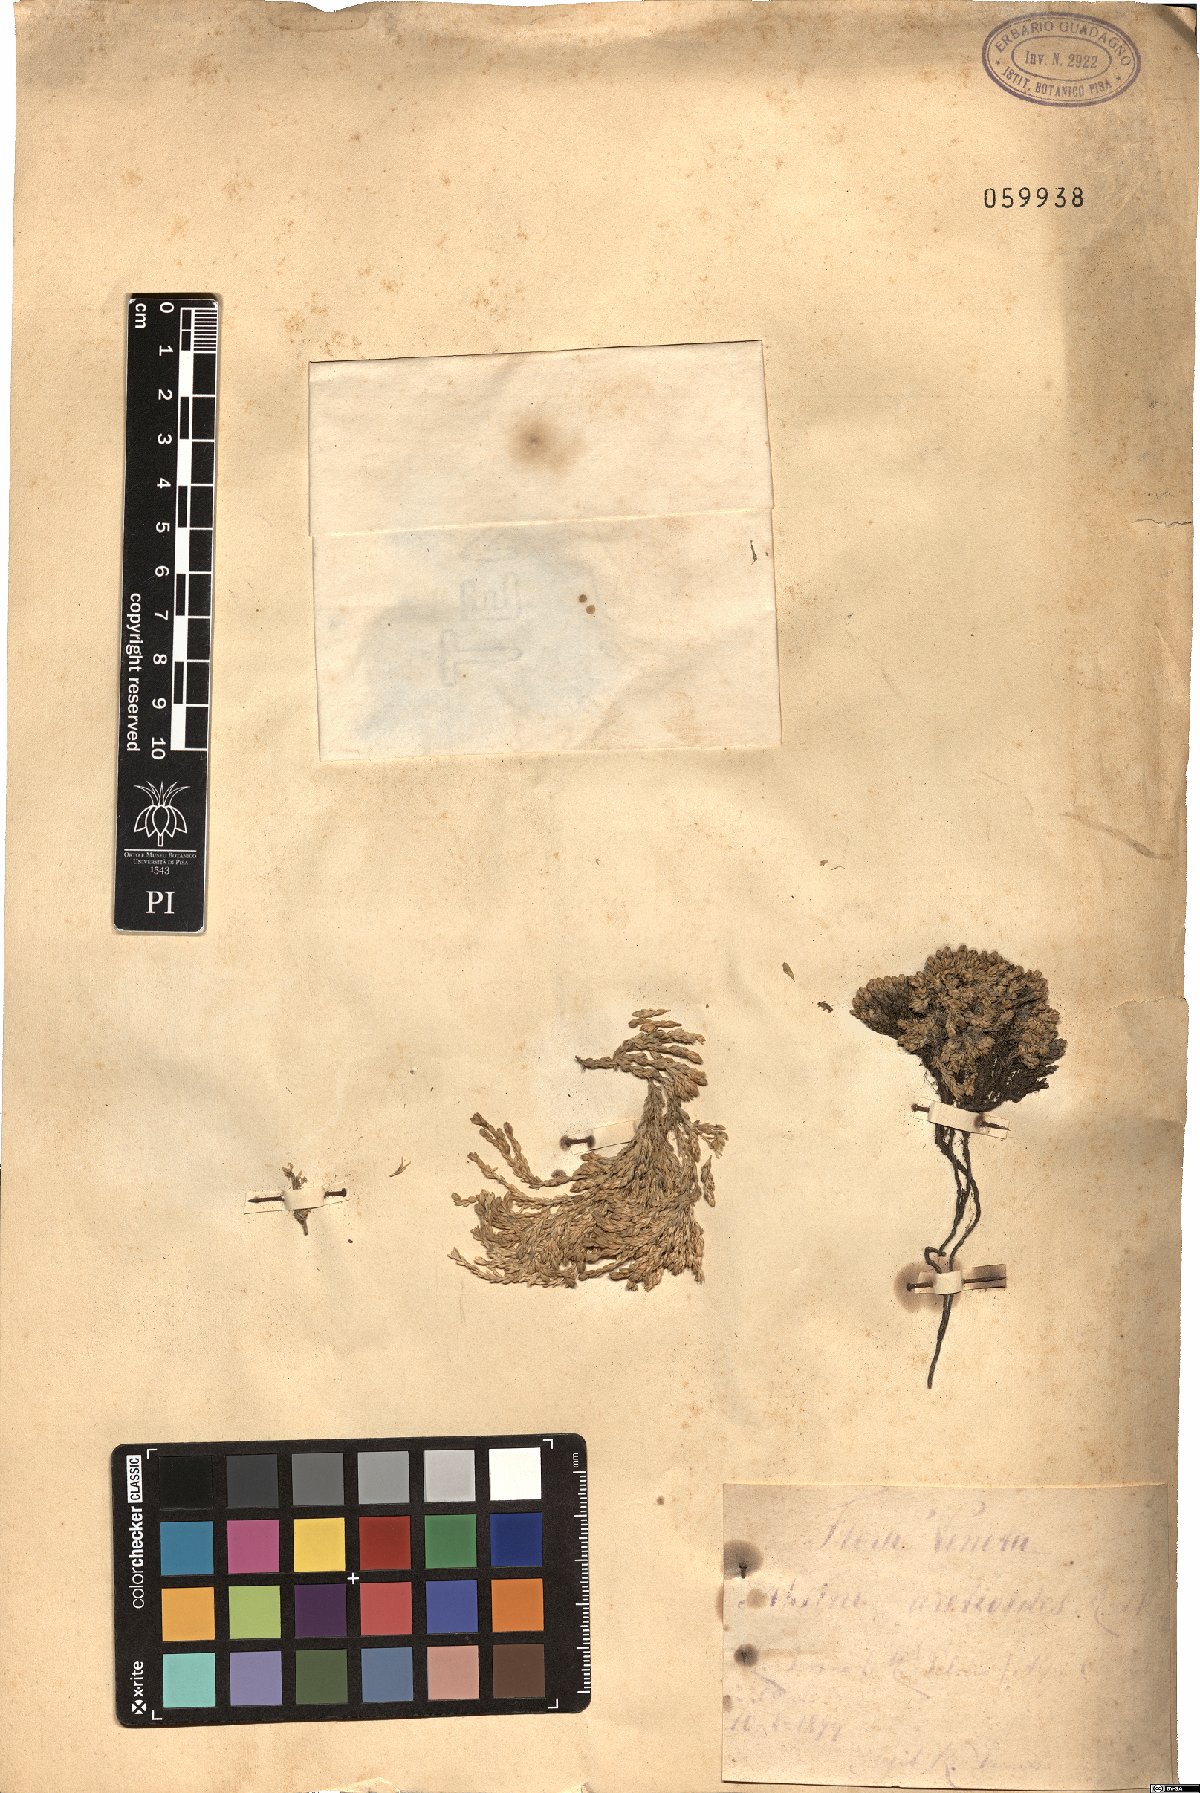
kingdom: Plantae
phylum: Tracheophyta
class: Magnoliopsida
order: Caryophyllales
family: Caryophyllaceae
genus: Facchinia
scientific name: Facchinia cherlerioides
